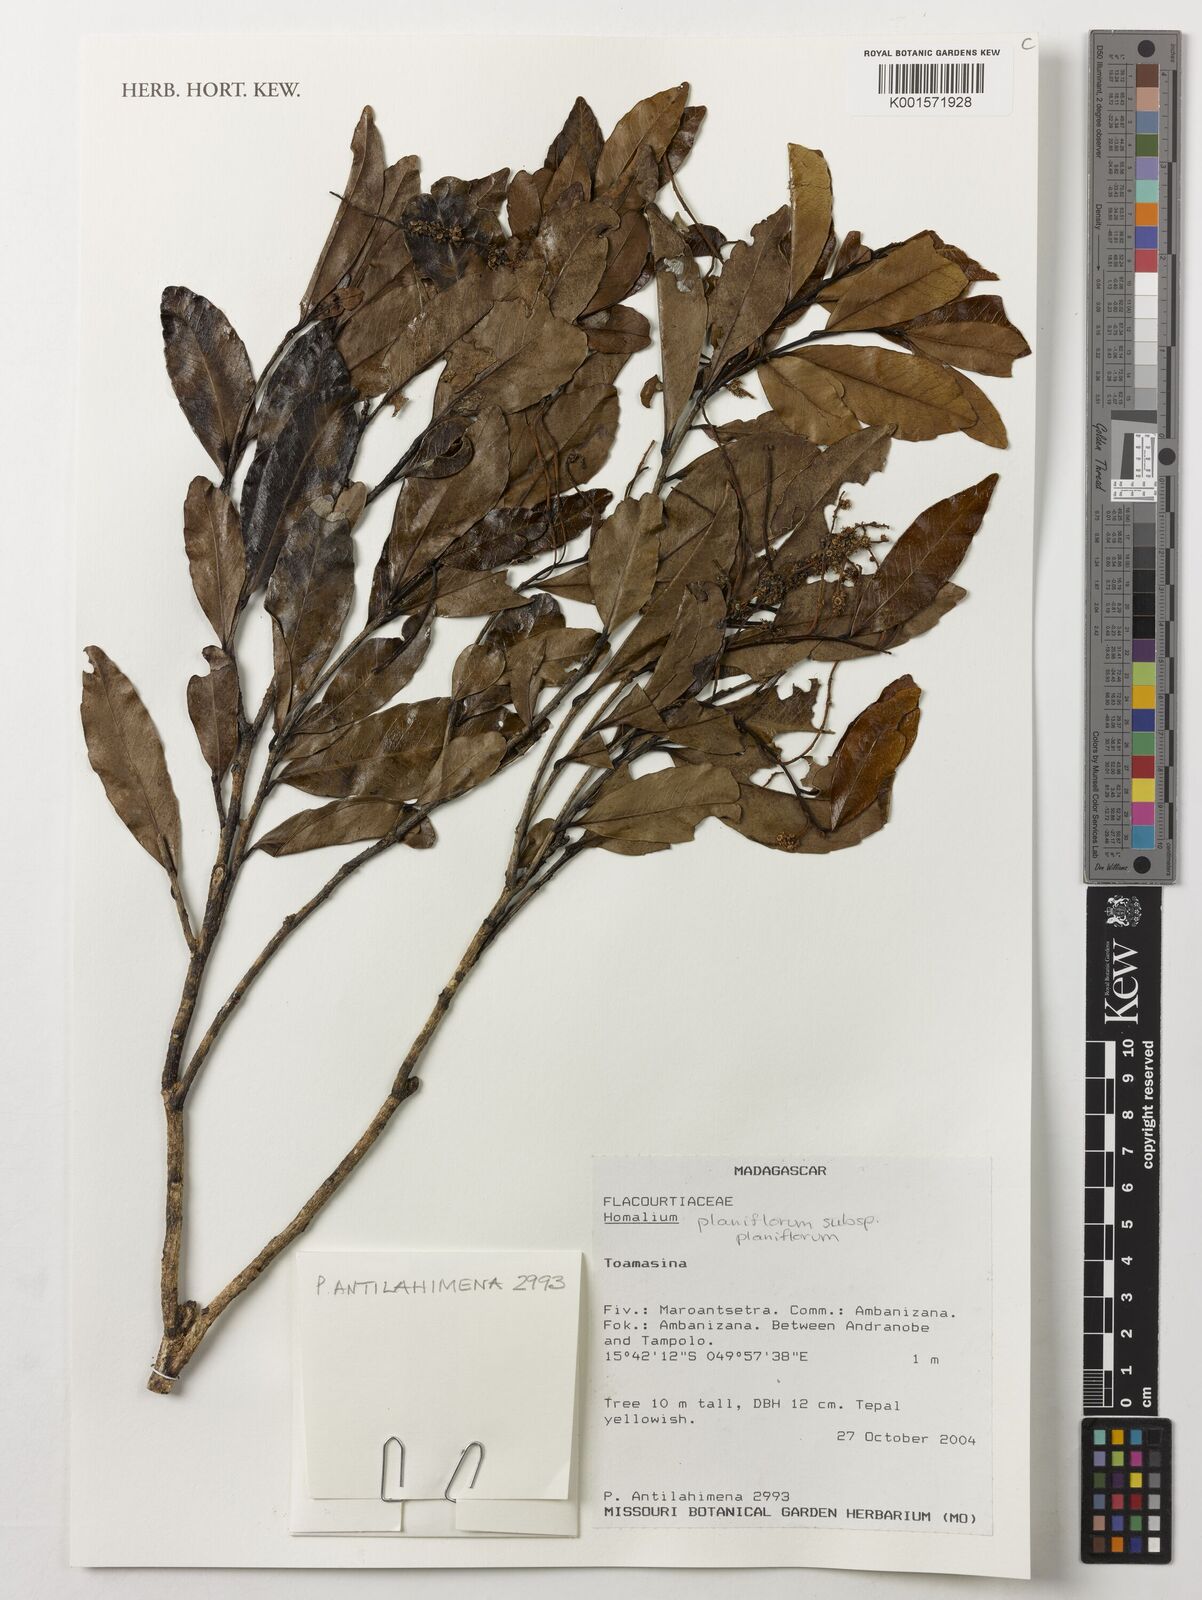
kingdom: Plantae
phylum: Tracheophyta
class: Magnoliopsida
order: Malpighiales
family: Salicaceae
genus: Homalium
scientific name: Homalium planiflorum
